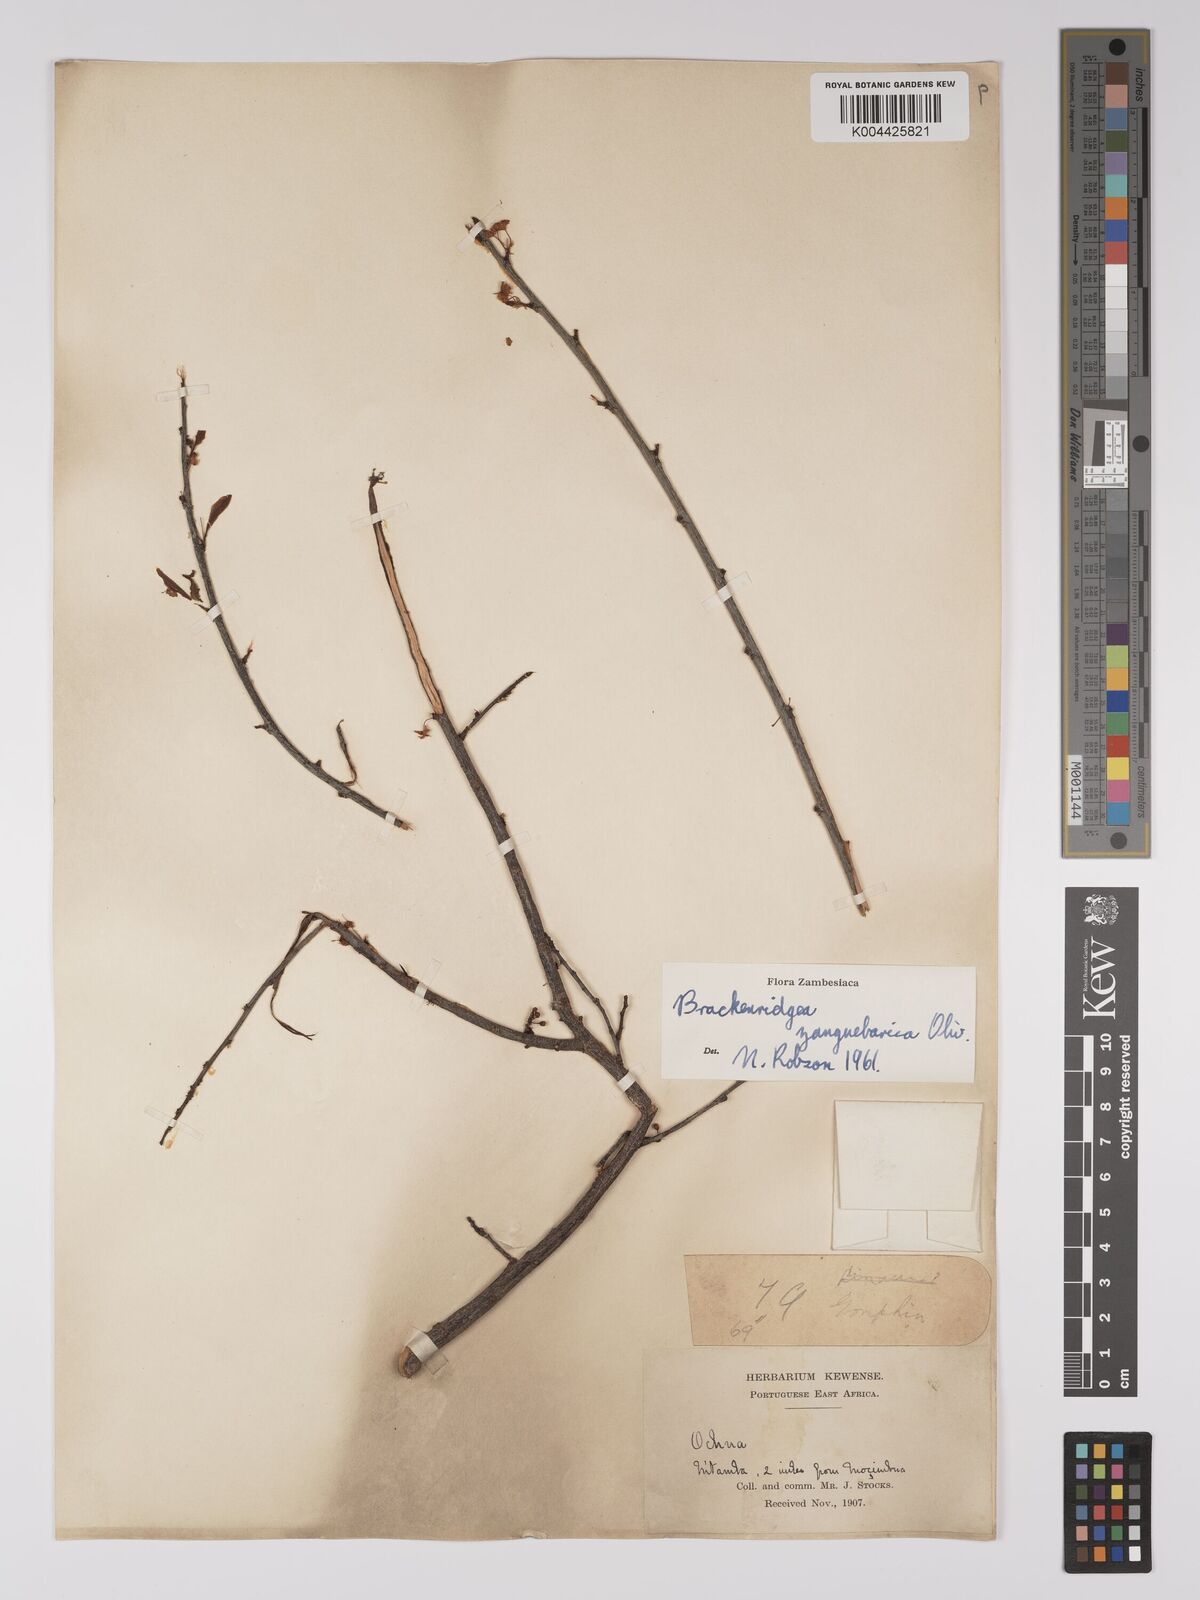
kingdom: Plantae
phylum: Tracheophyta
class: Magnoliopsida
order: Malpighiales
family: Ochnaceae
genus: Brackenridgea
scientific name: Brackenridgea zanguebarica
